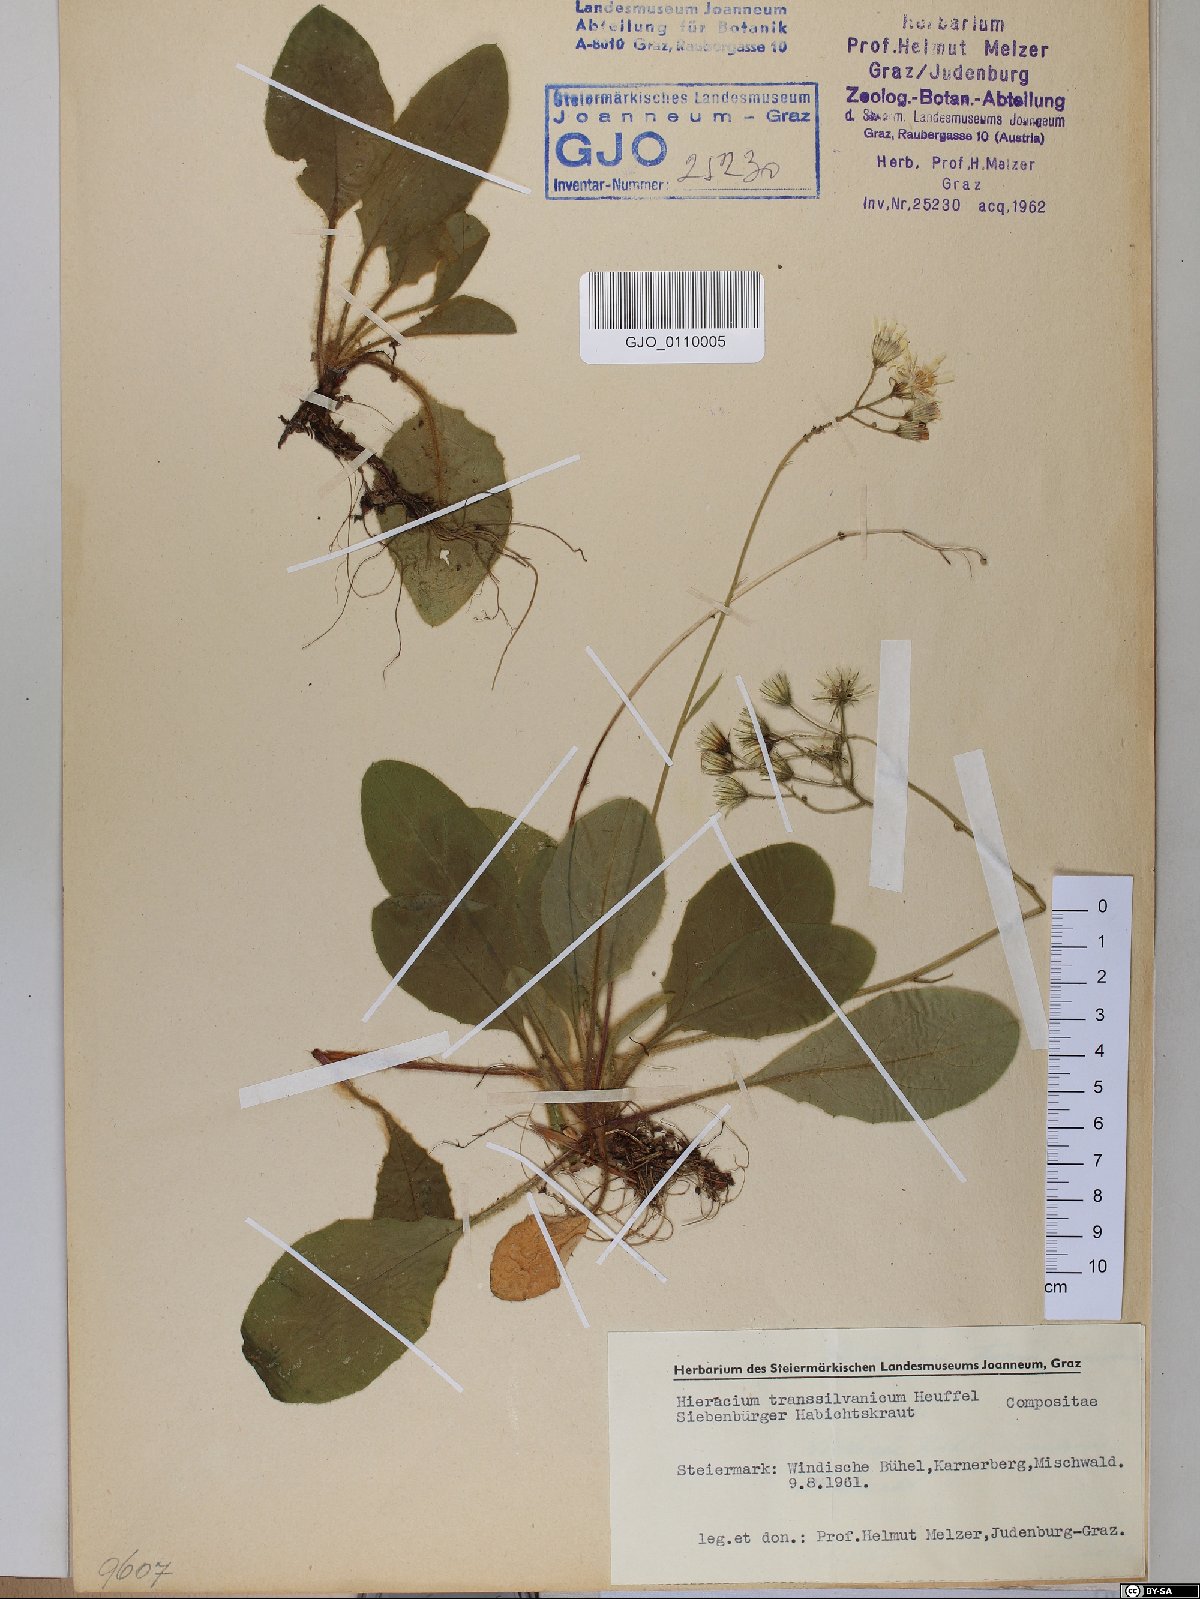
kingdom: Plantae
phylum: Tracheophyta
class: Magnoliopsida
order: Asterales
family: Asteraceae
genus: Hieracium
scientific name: Hieracium transylvanicum
